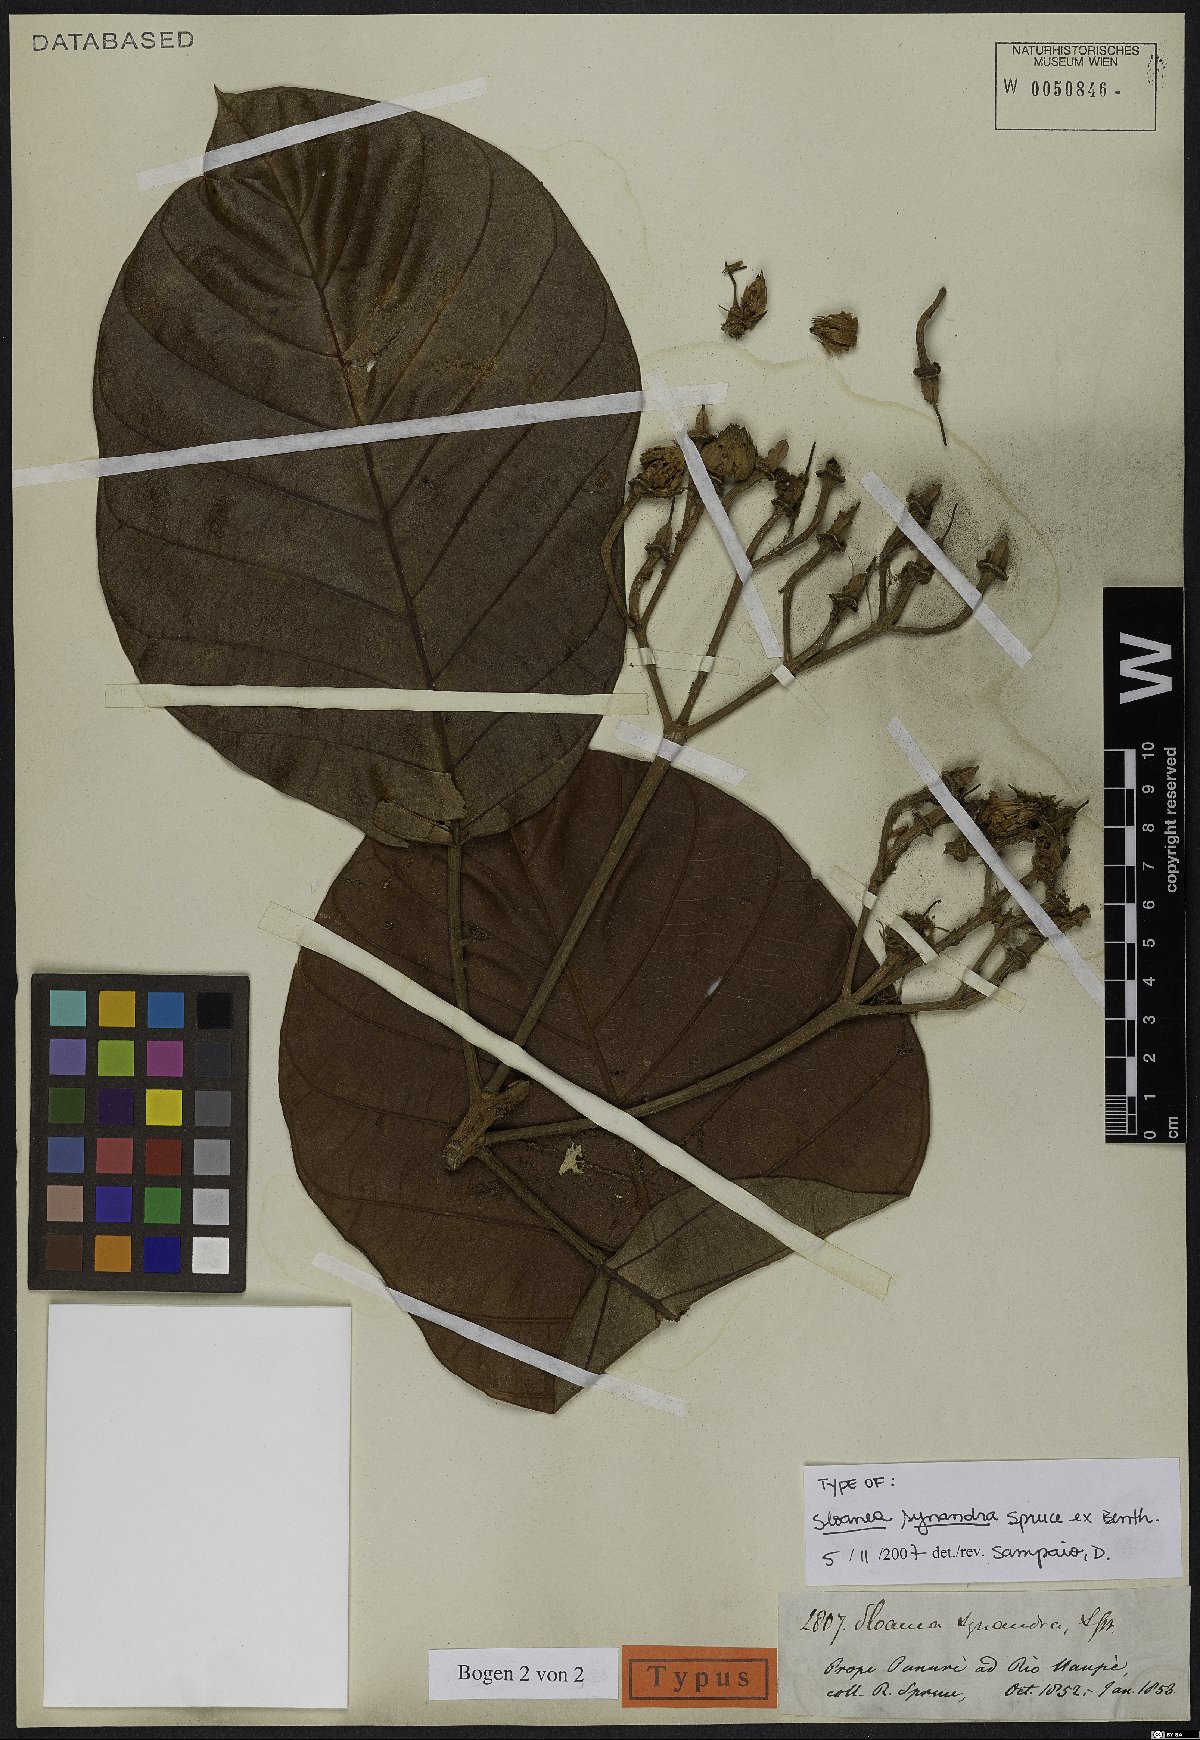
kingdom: Plantae
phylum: Tracheophyta
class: Magnoliopsida
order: Oxalidales
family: Elaeocarpaceae
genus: Sloanea
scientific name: Sloanea synandra
